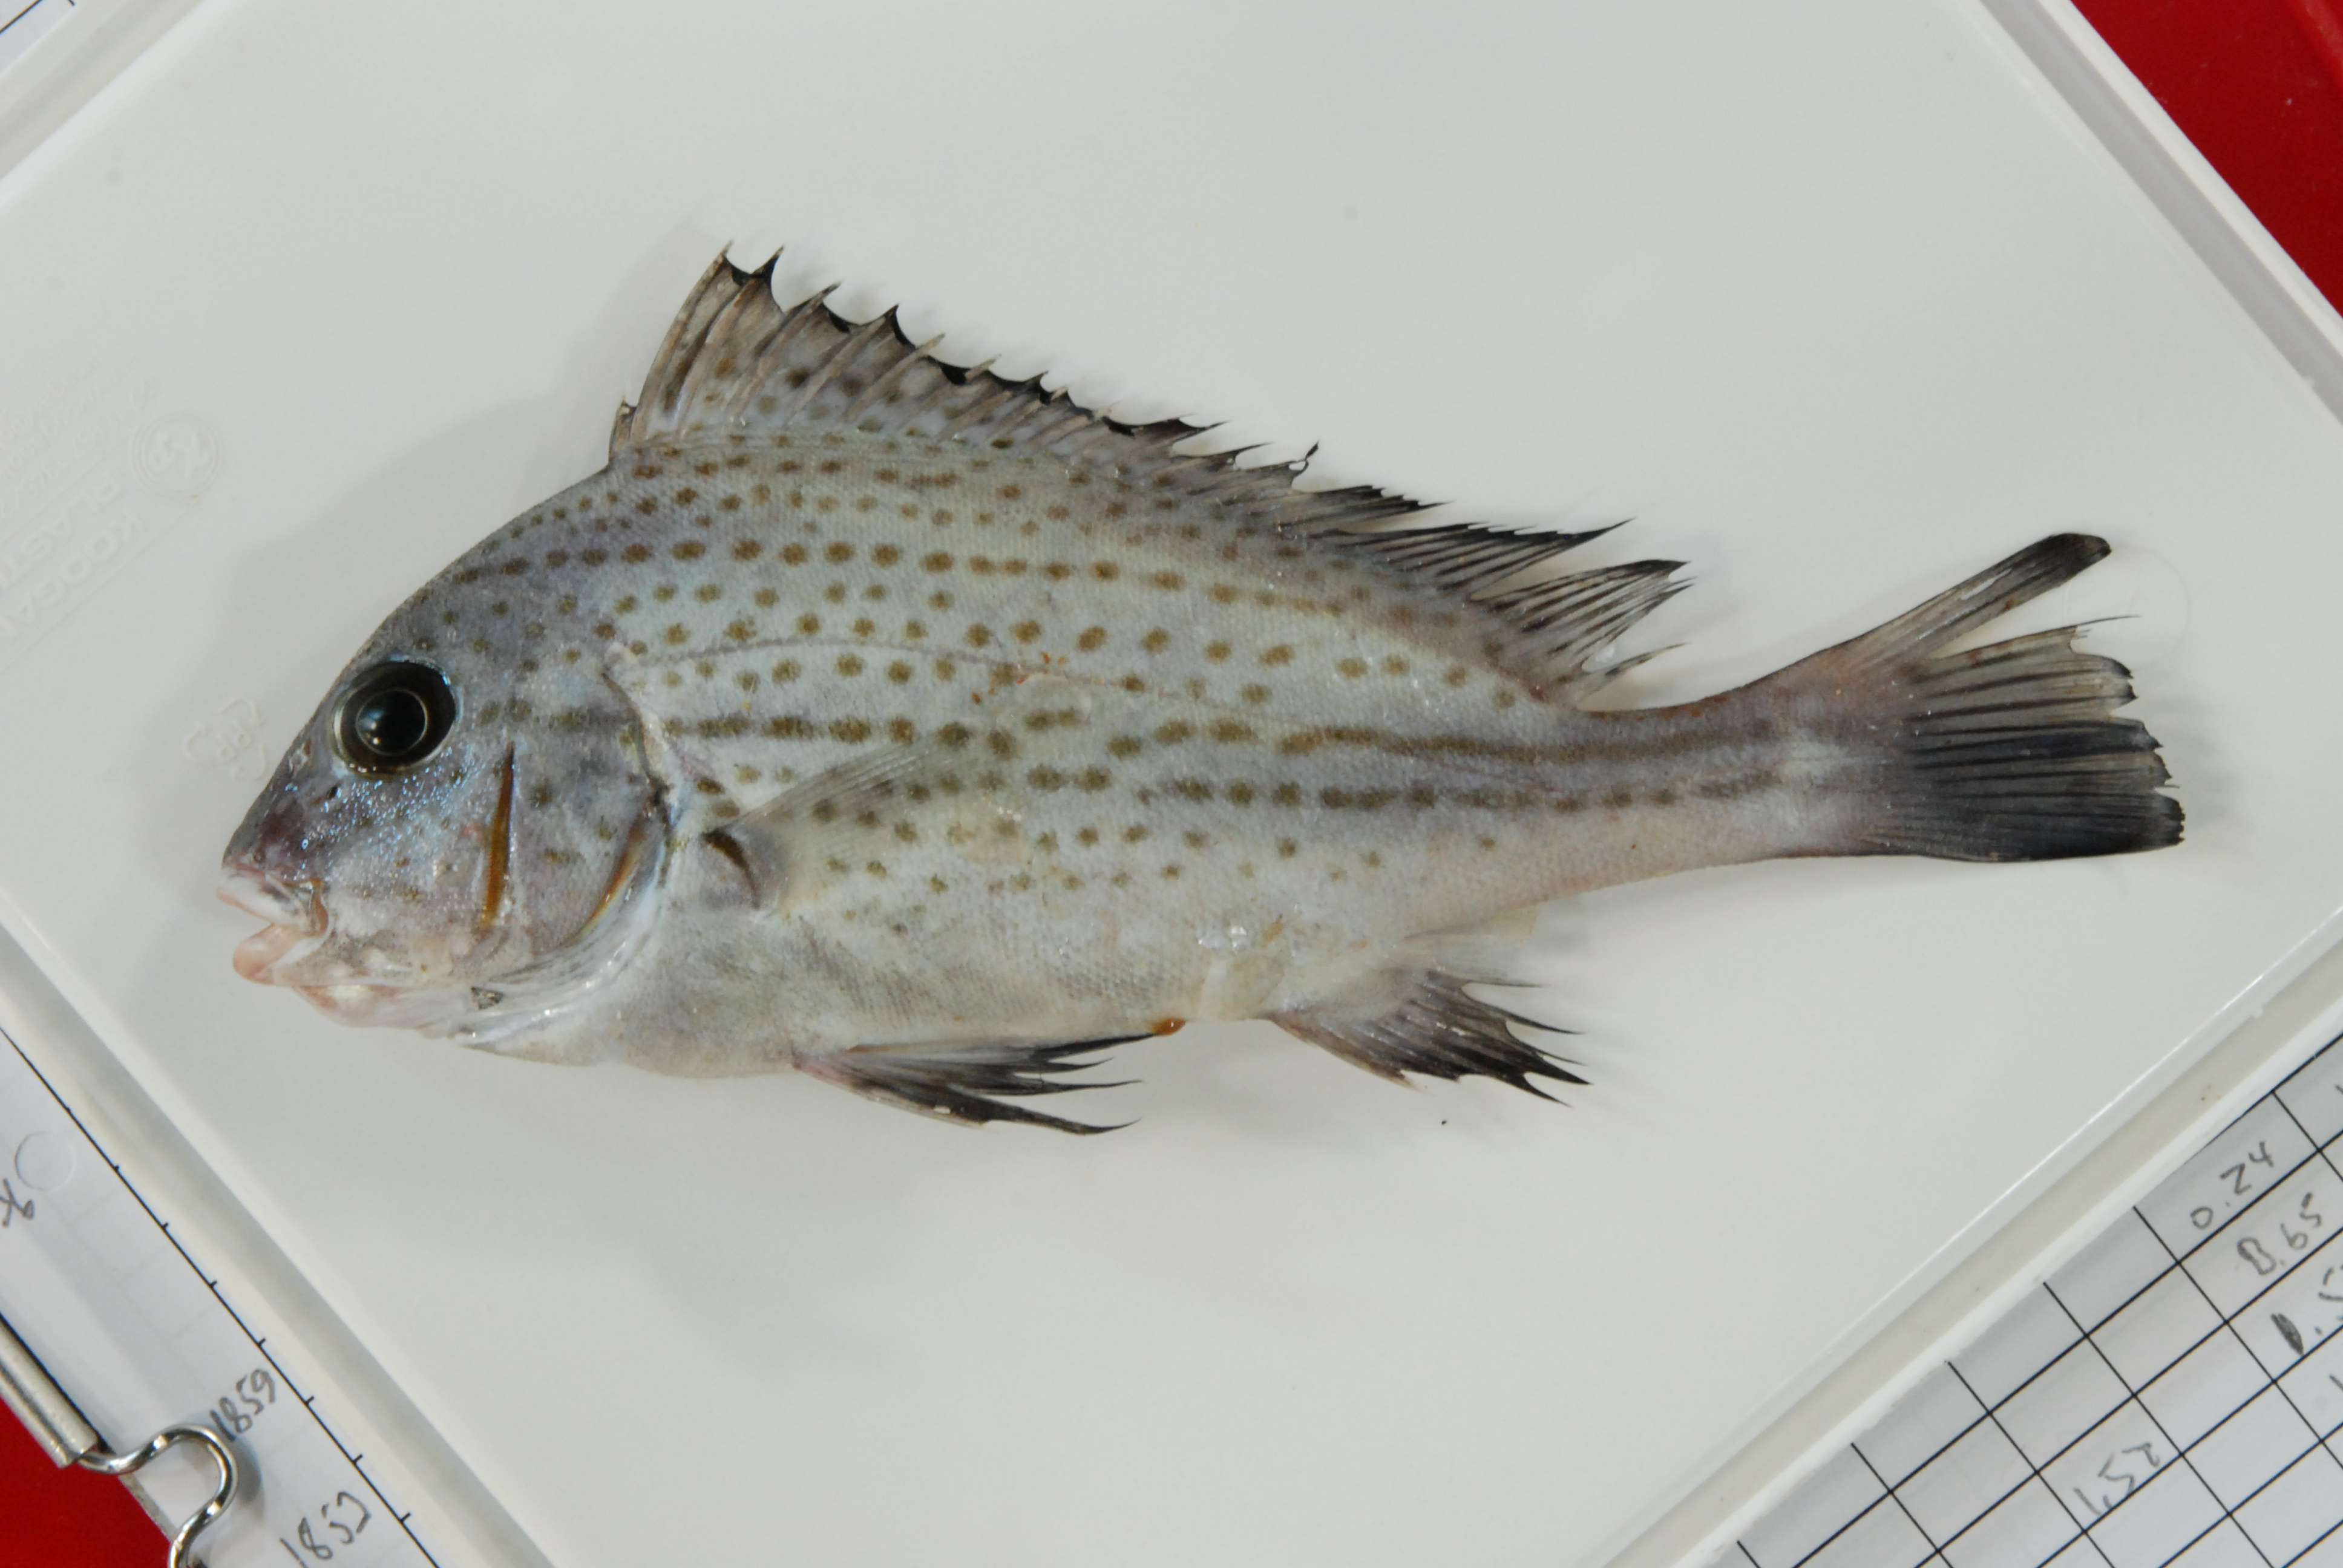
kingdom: Animalia
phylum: Chordata
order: Perciformes
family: Haemulidae
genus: Diagramma
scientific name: Diagramma centurio
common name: Sailfin rubberlip
